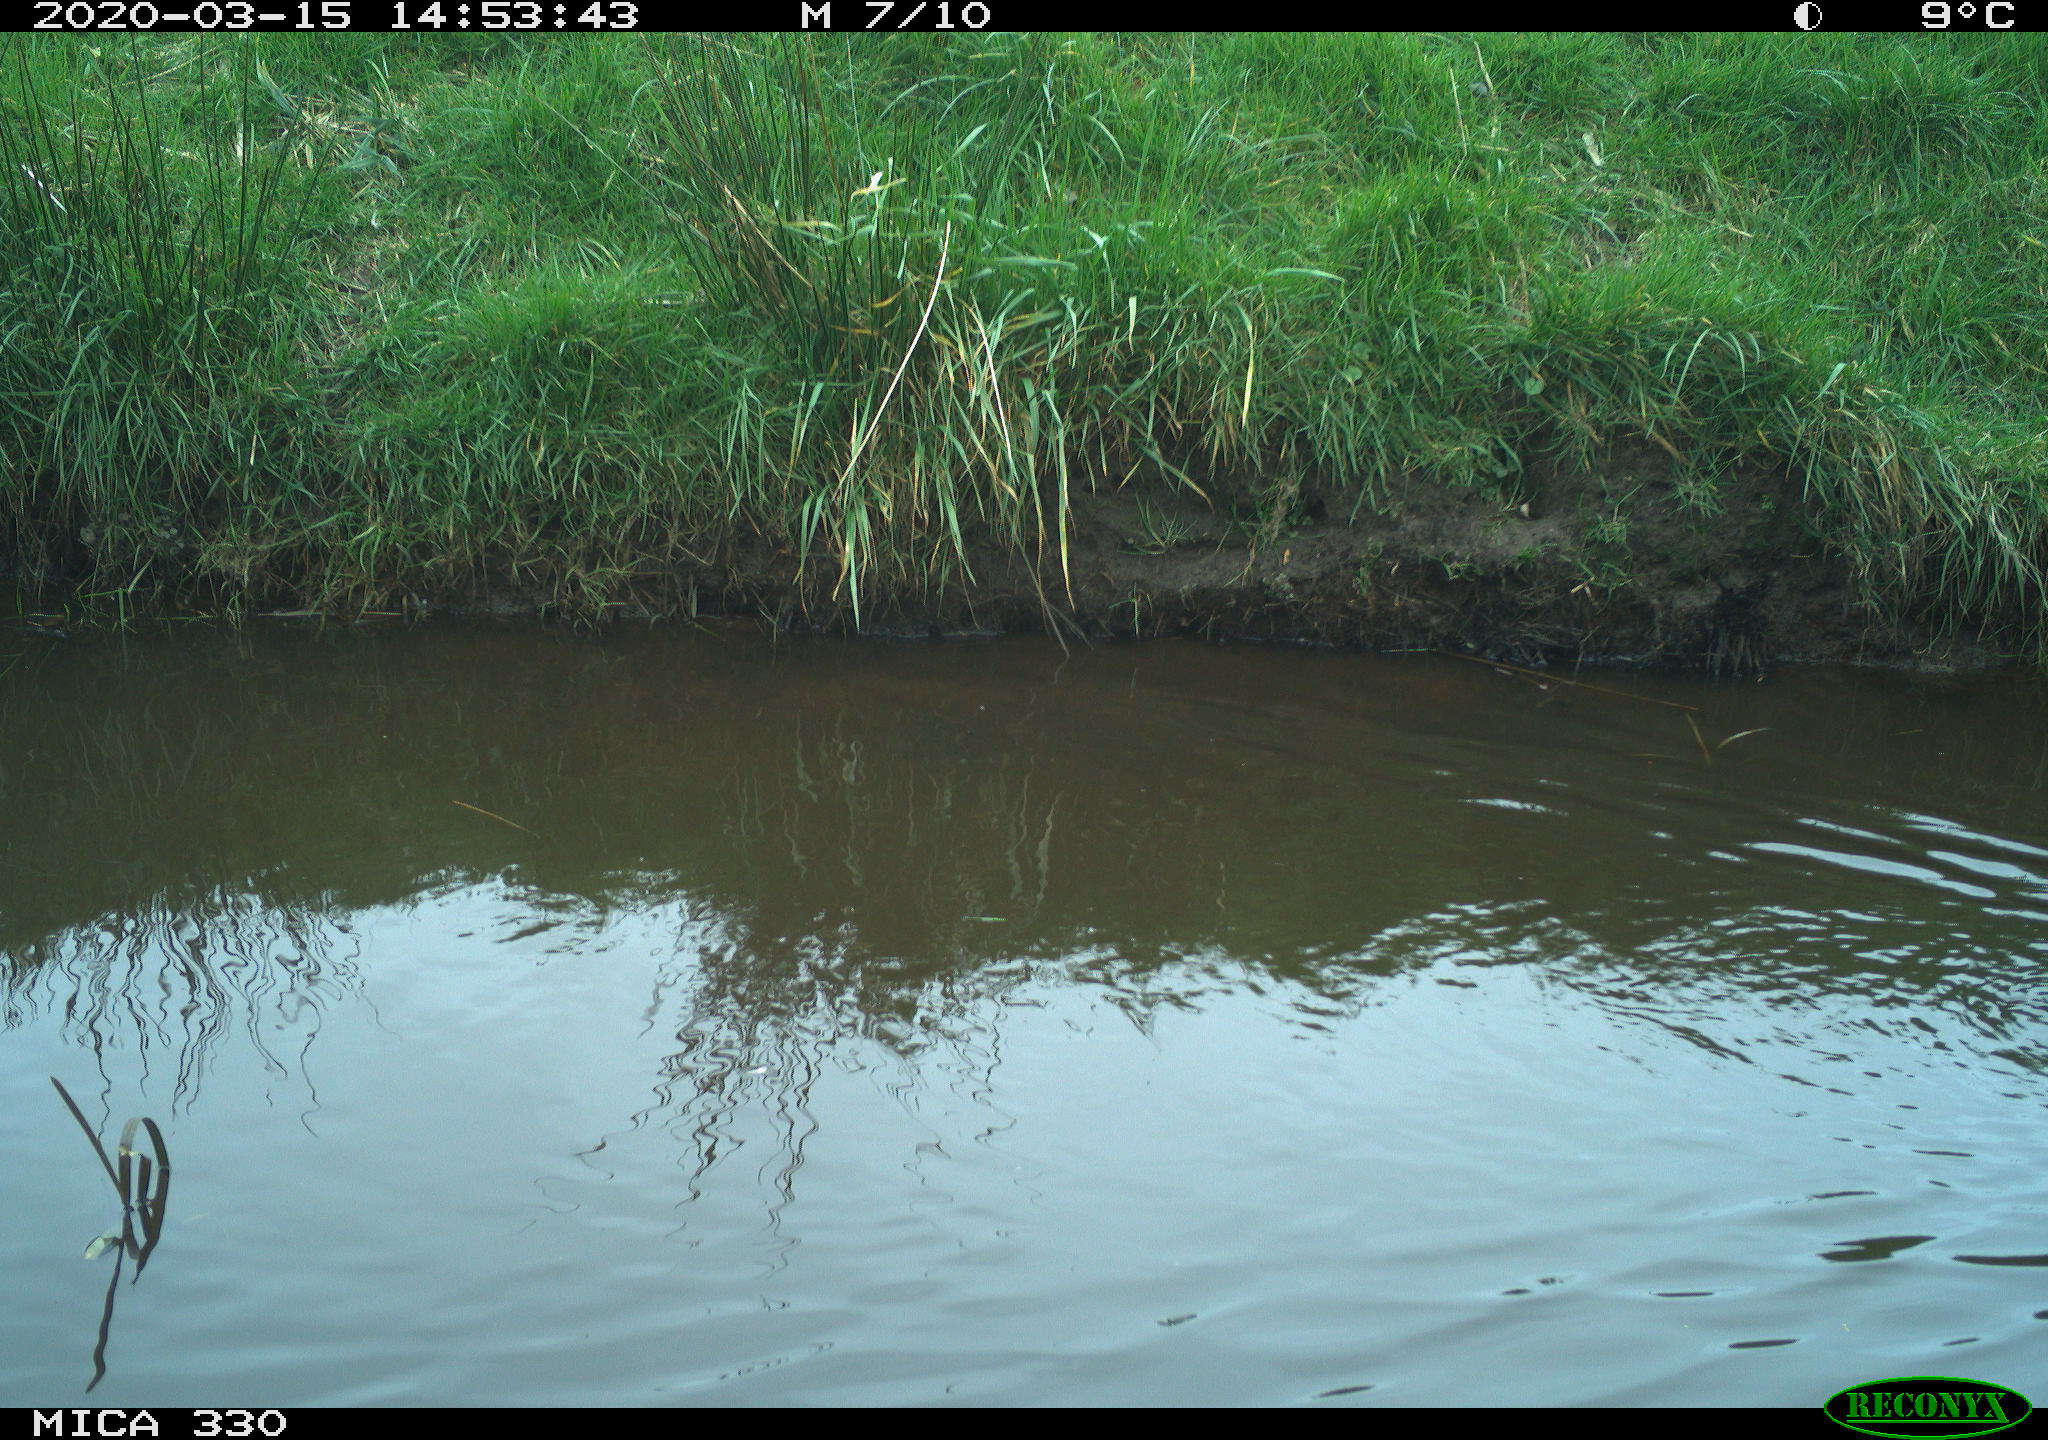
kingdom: Animalia
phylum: Chordata
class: Aves
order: Anseriformes
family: Anatidae
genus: Anas
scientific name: Anas platyrhynchos
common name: Mallard
